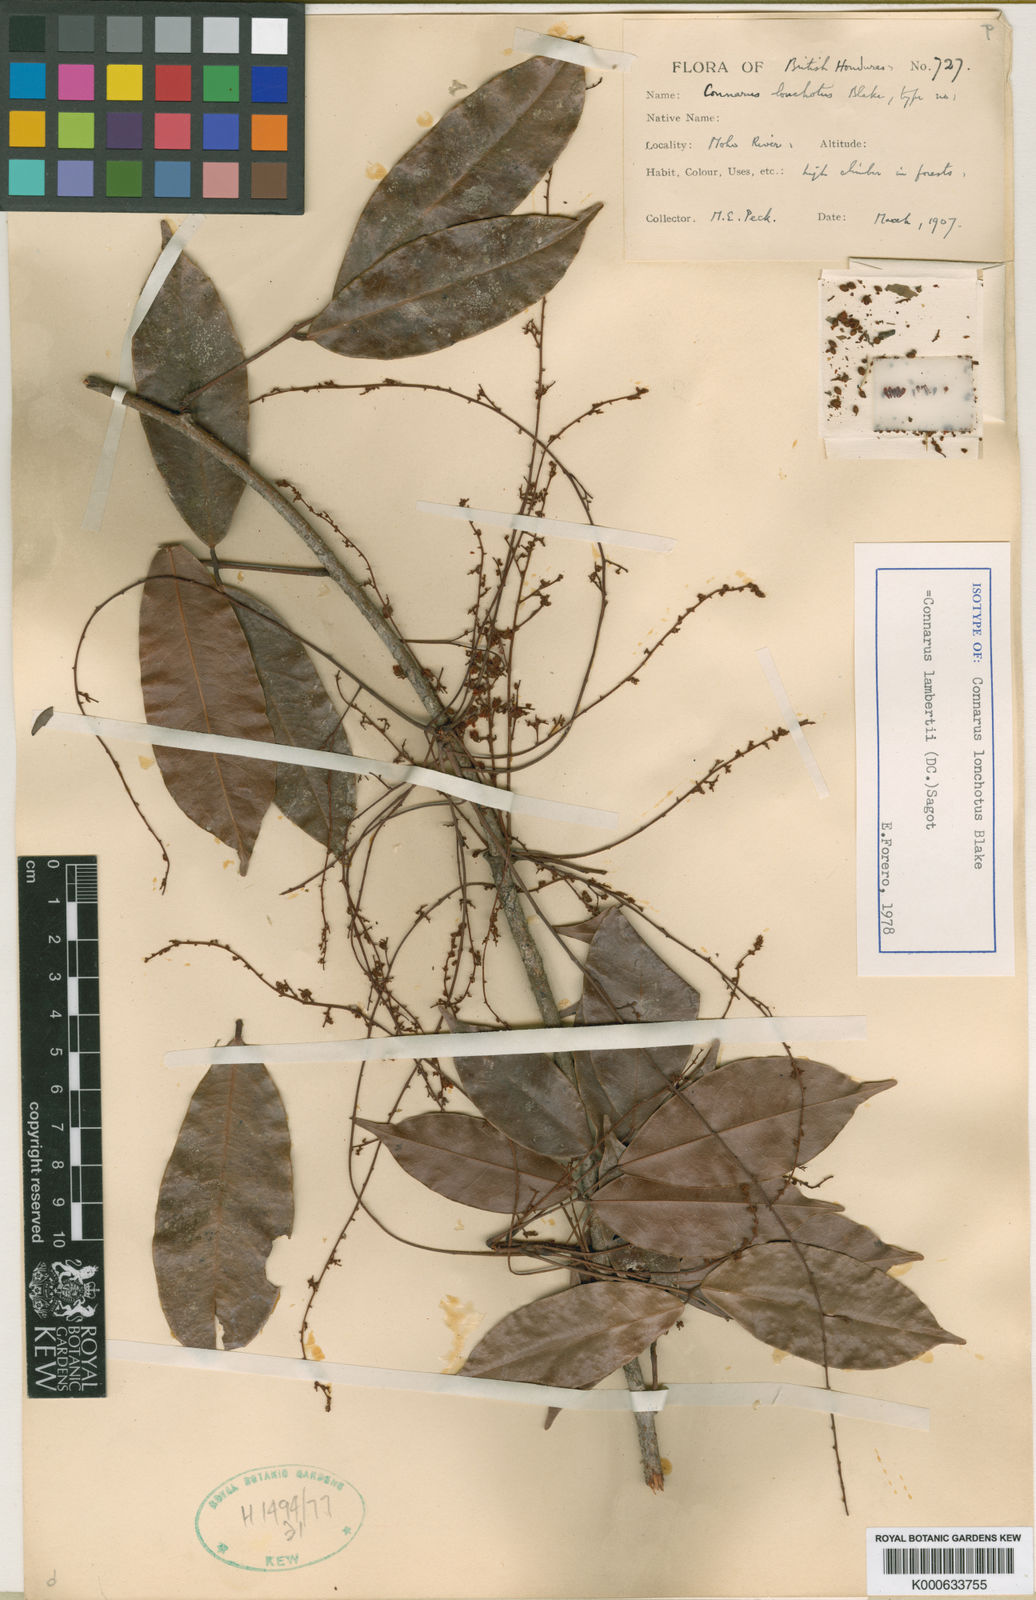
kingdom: Plantae
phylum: Tracheophyta
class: Magnoliopsida
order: Oxalidales
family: Connaraceae
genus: Connarus
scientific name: Connarus
